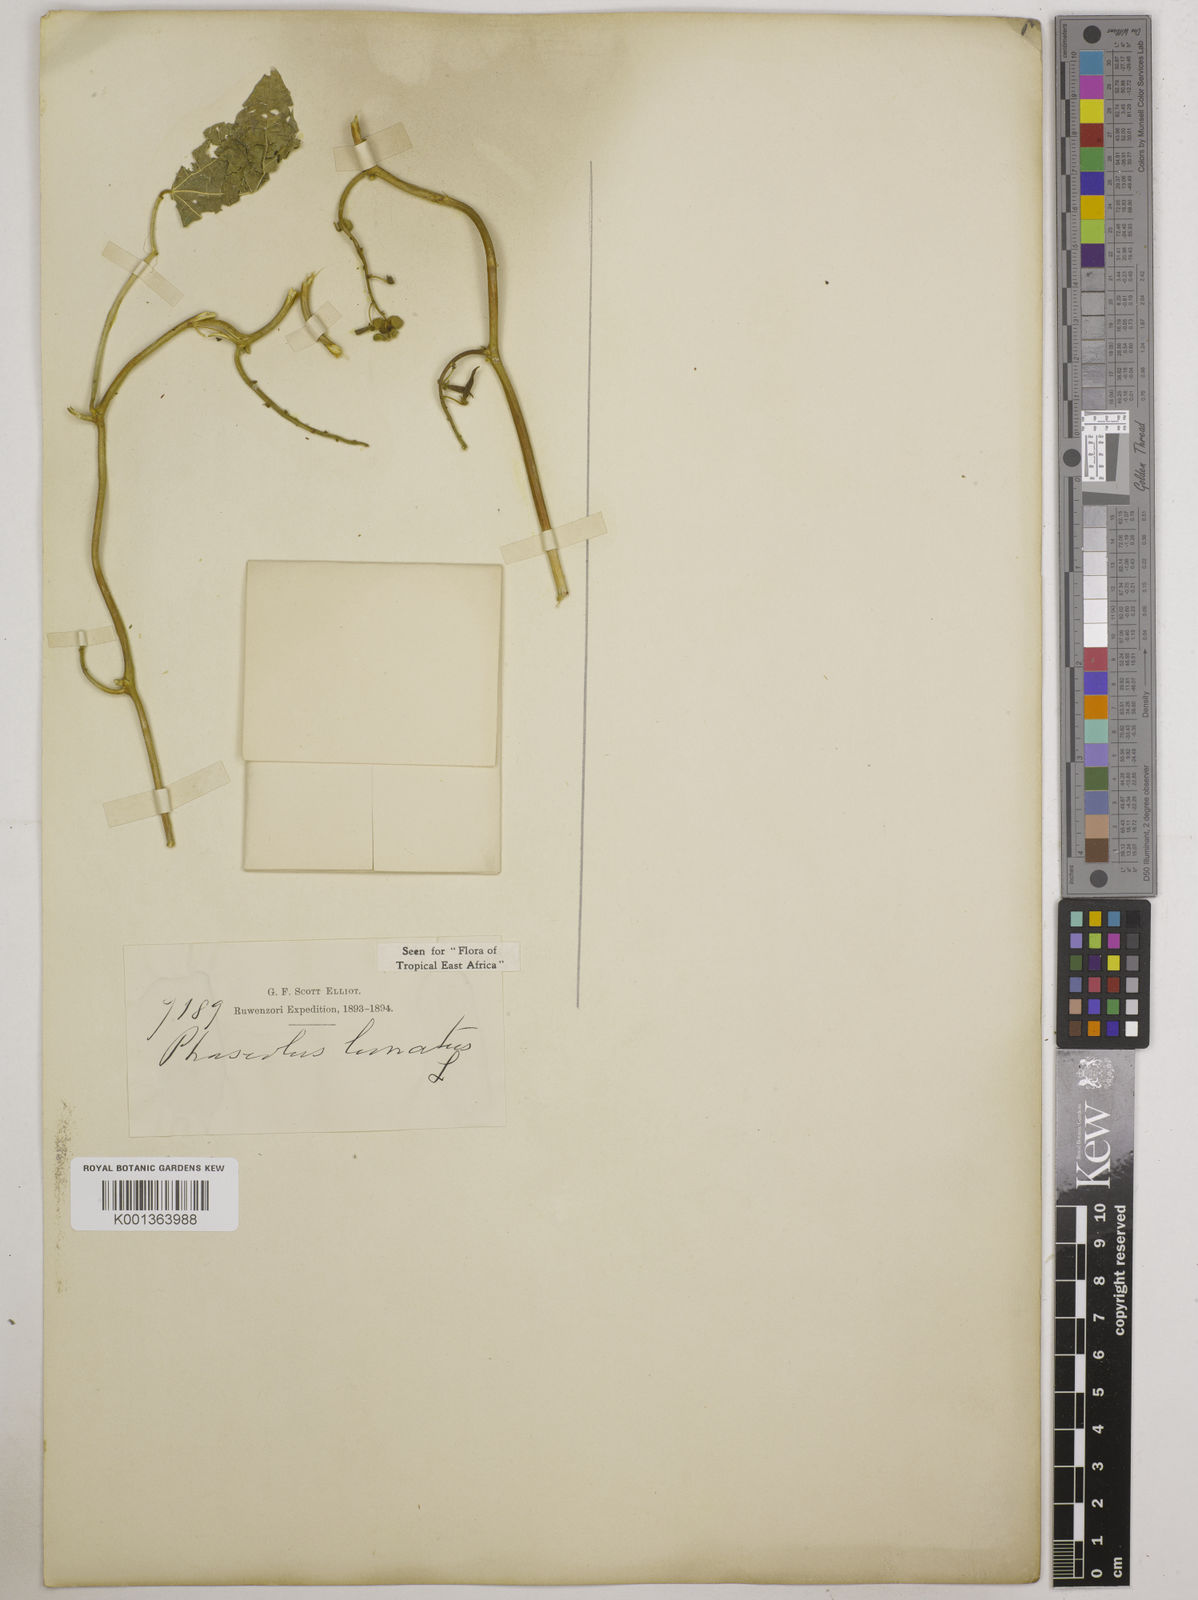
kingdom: Plantae
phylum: Tracheophyta
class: Magnoliopsida
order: Fabales
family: Fabaceae
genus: Phaseolus
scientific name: Phaseolus lunatus
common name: Sieva bean
